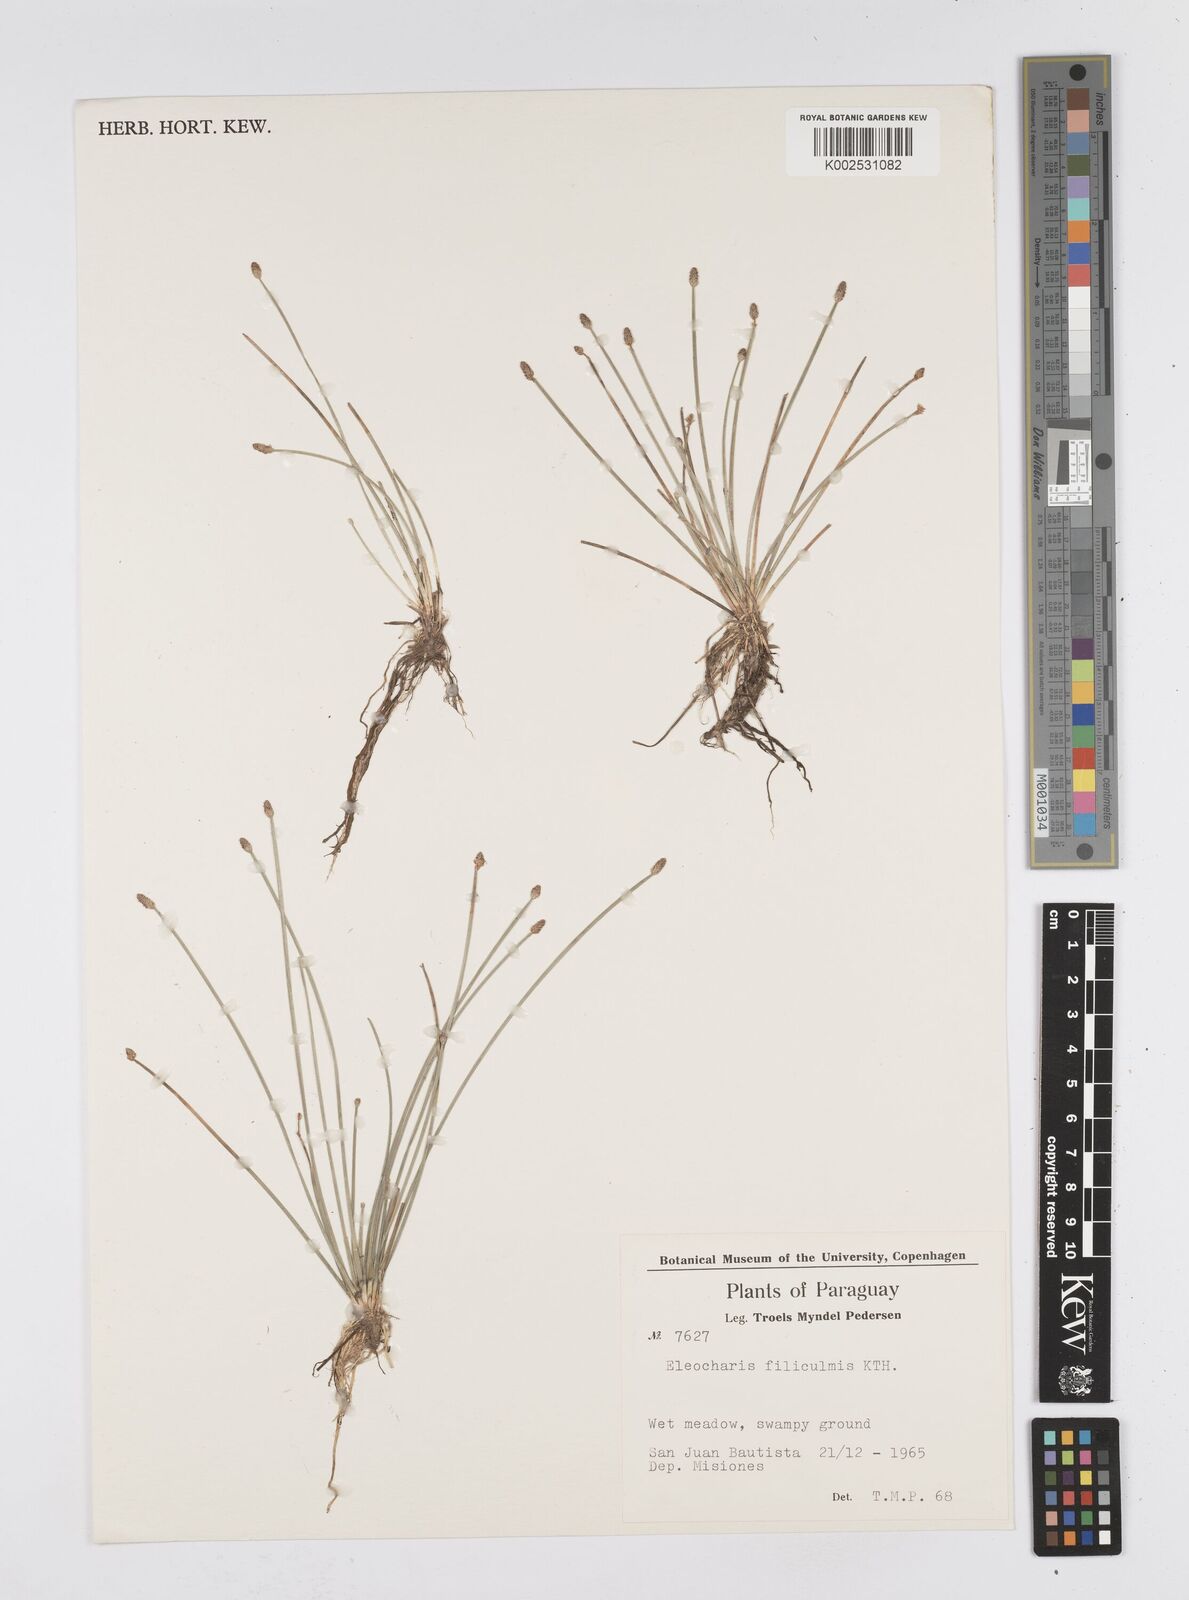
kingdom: Plantae
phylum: Tracheophyta
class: Liliopsida
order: Poales
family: Cyperaceae
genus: Eleocharis
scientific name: Eleocharis filiculmis
